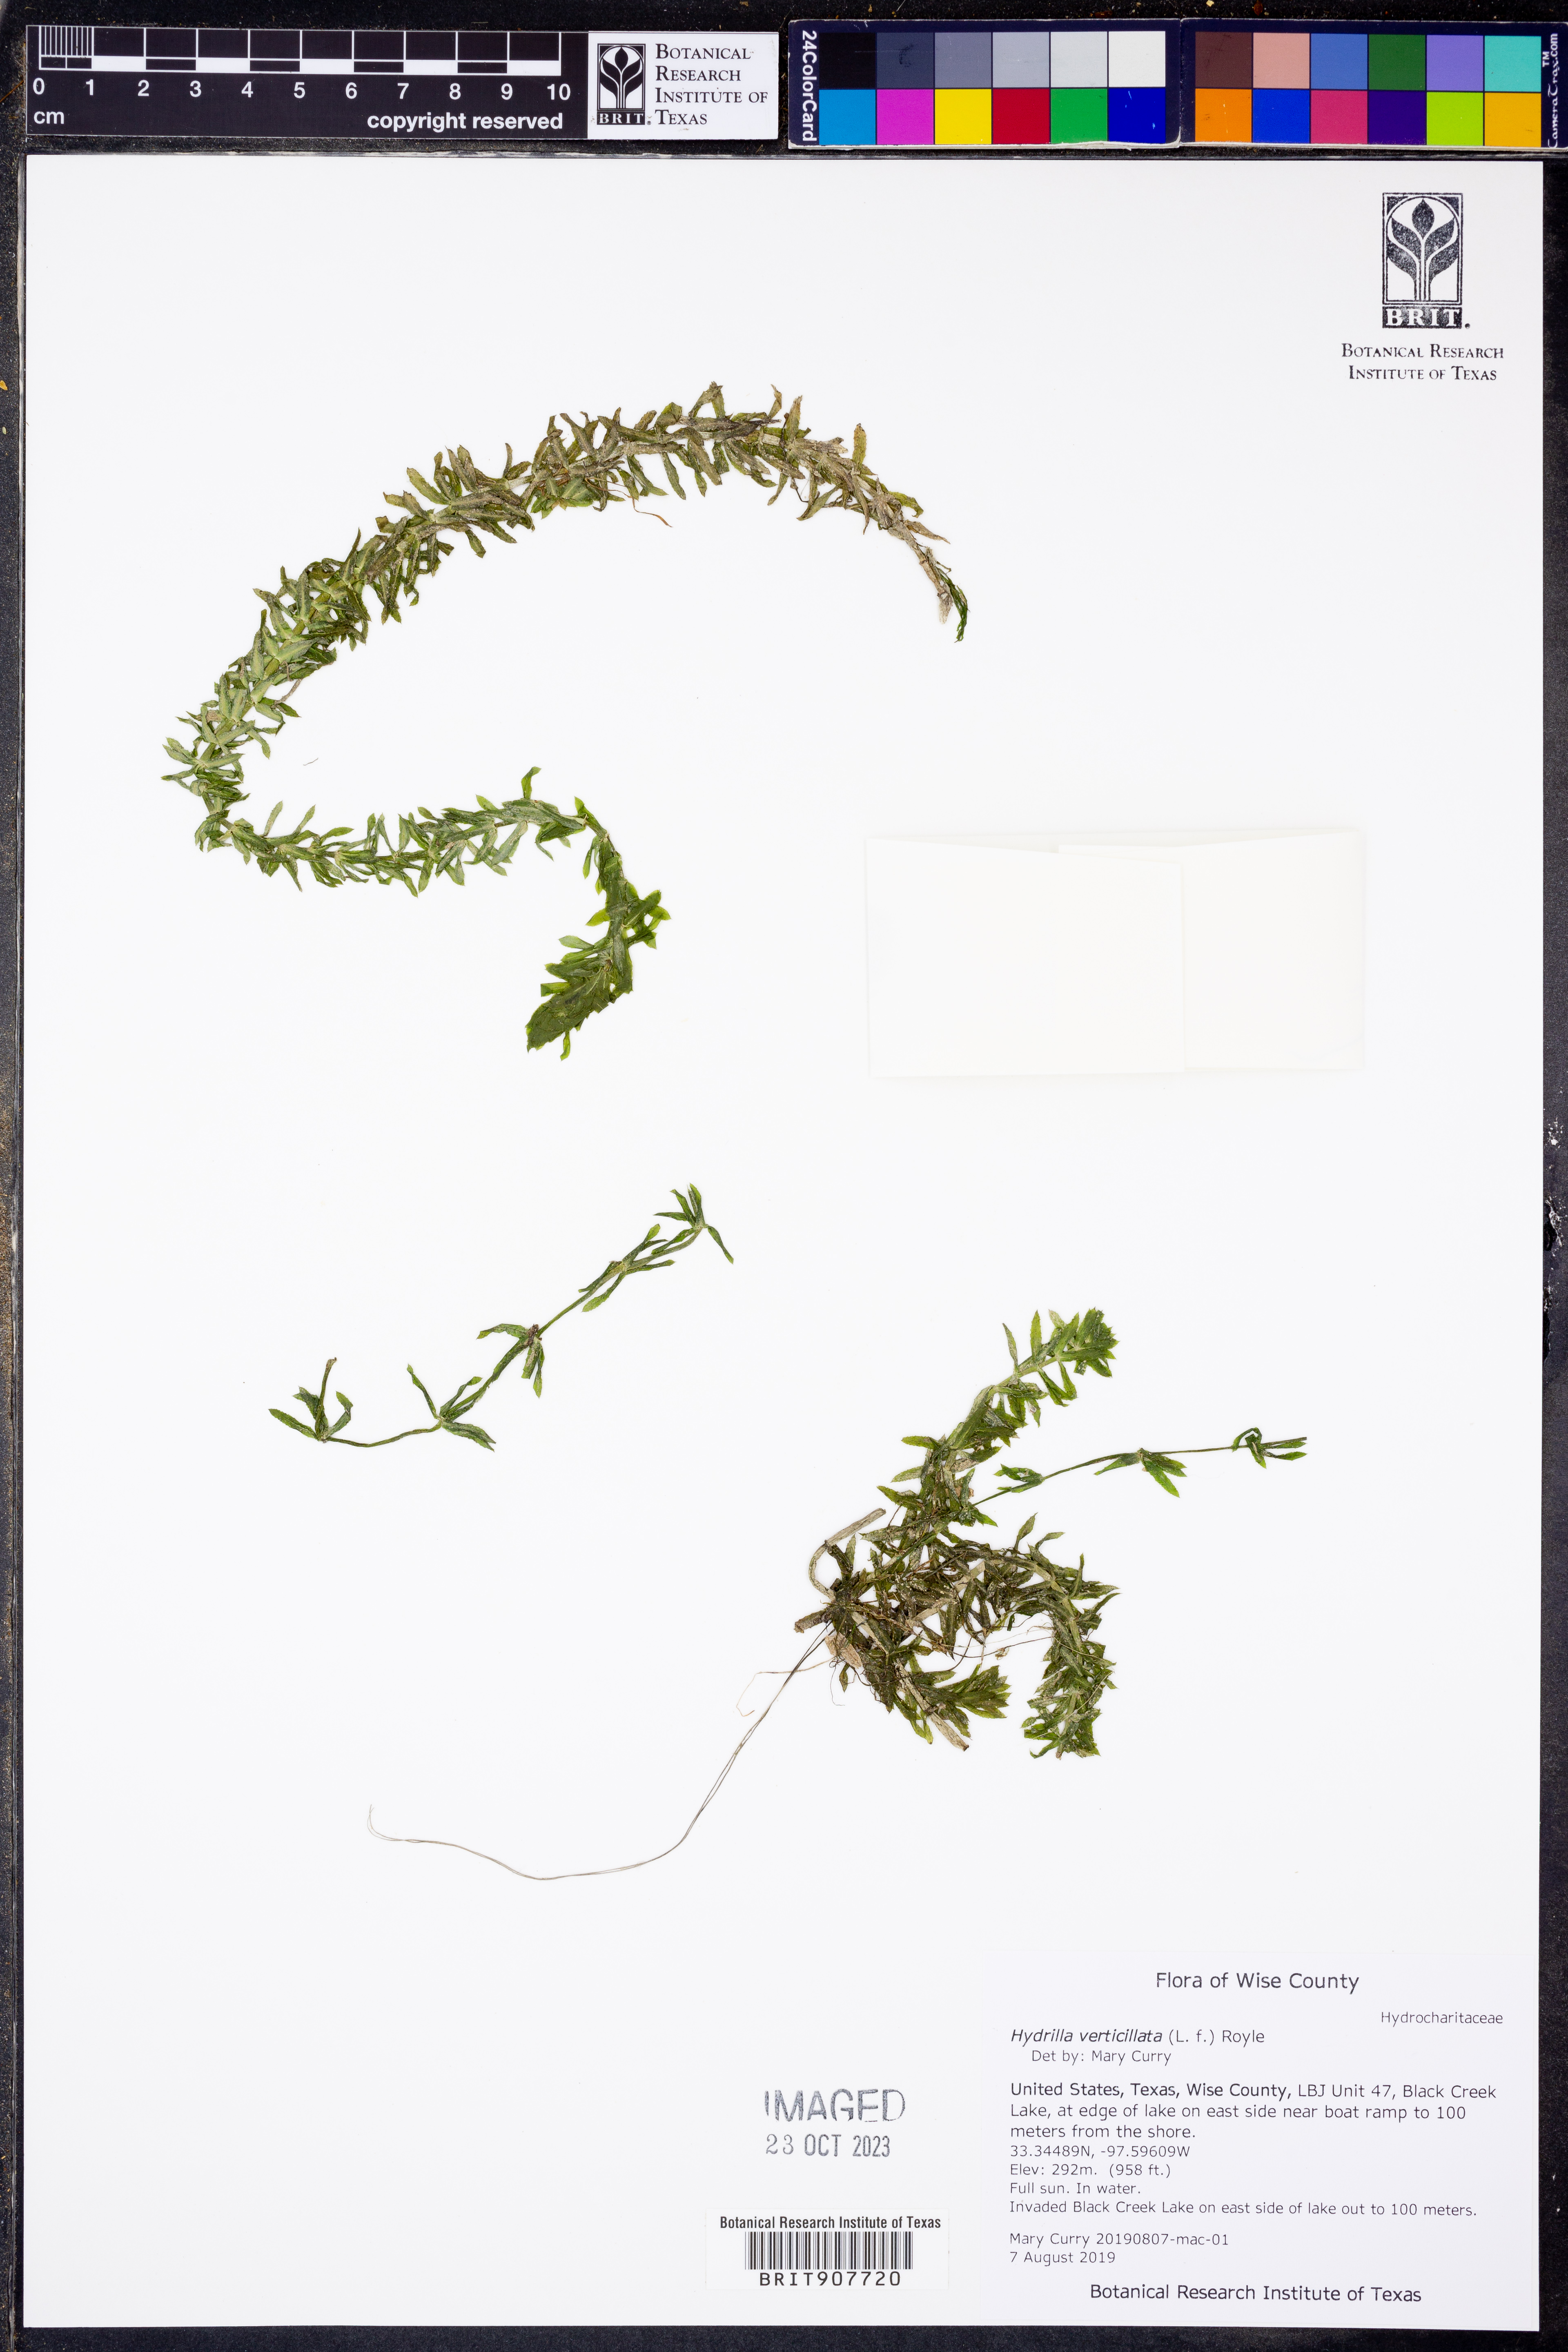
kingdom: Plantae
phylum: Tracheophyta
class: Liliopsida
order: Alismatales
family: Hydrocharitaceae
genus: Hydrilla
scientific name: Hydrilla verticillata
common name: Florida-elodea
